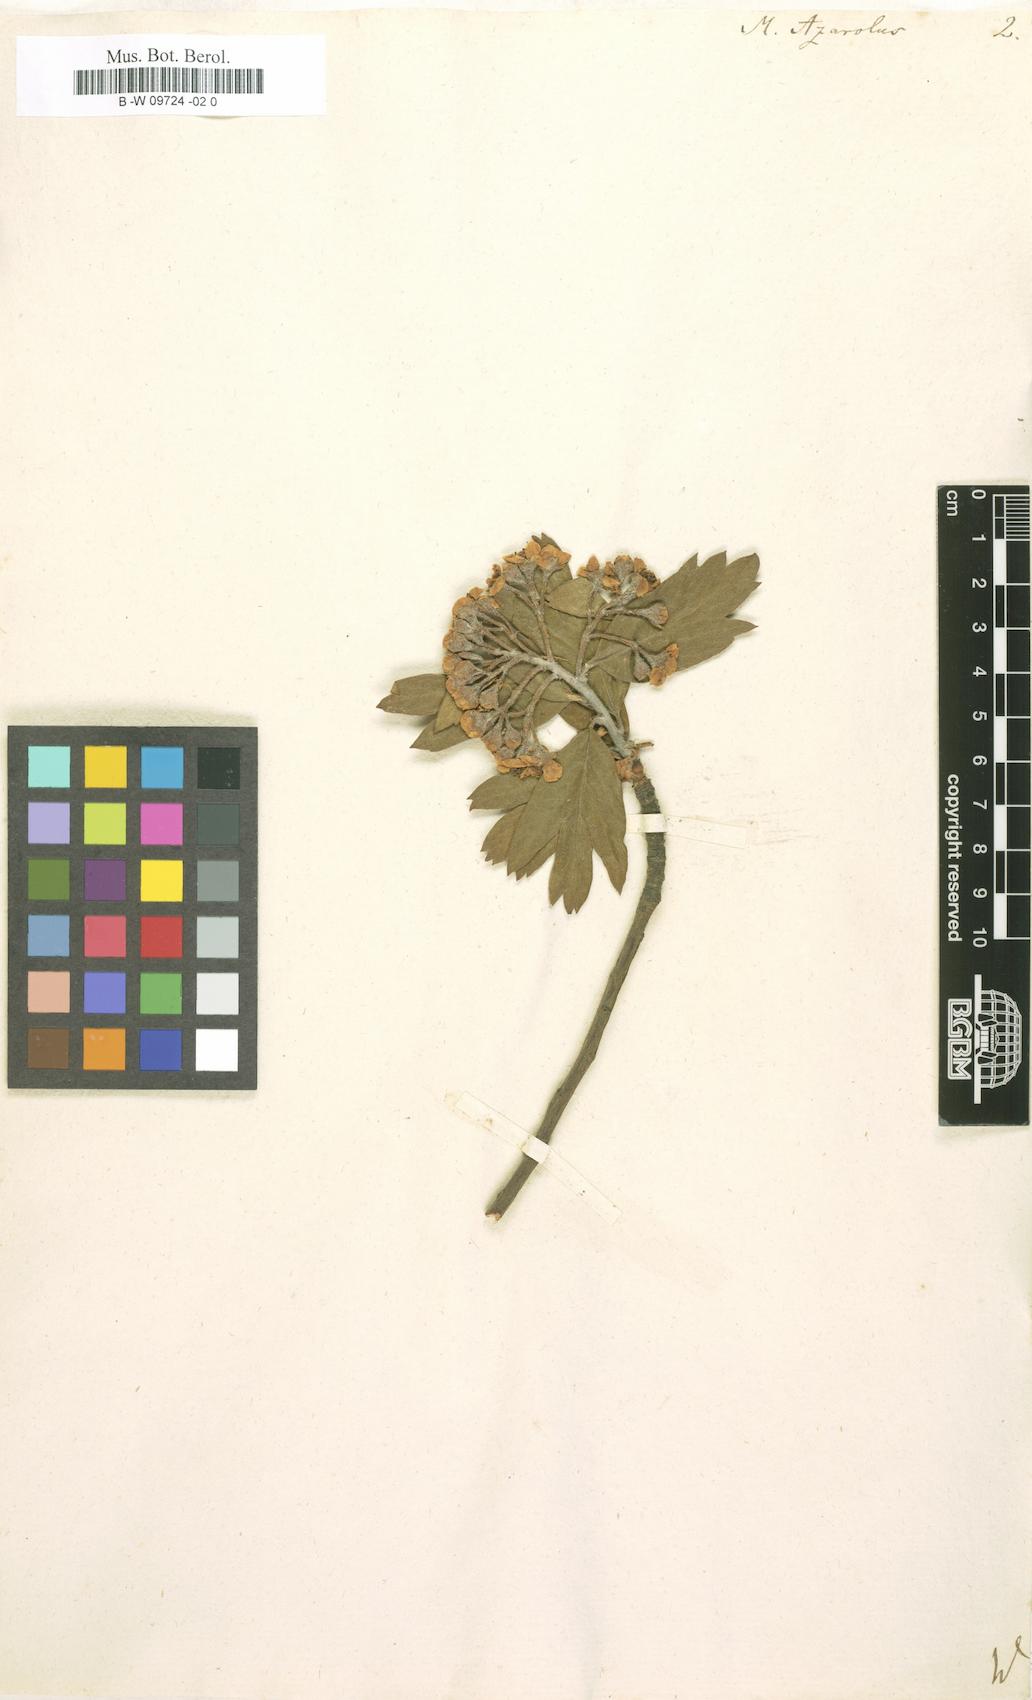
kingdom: Plantae
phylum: Tracheophyta
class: Magnoliopsida
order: Rosales
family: Rosaceae
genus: Crataegus
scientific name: Crataegus
